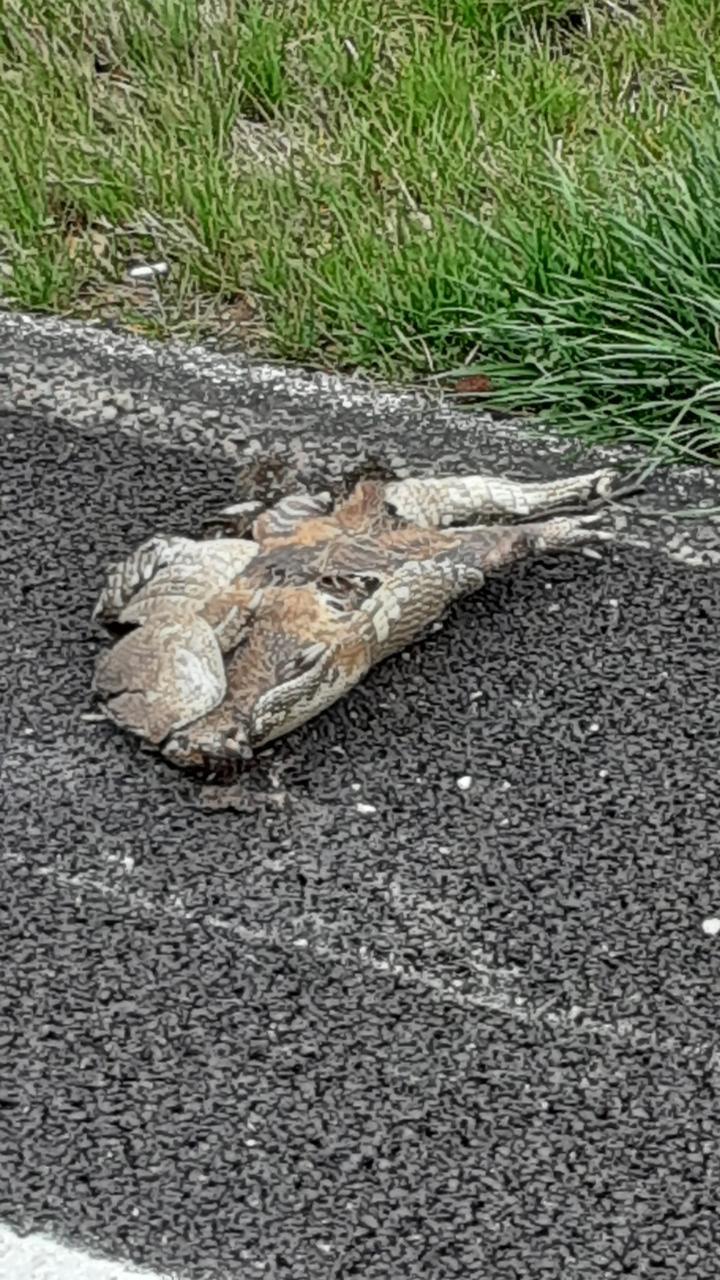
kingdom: Animalia
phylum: Chordata
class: Mammalia
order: Cingulata
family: Dasypodidae
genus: Dasypus
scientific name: Dasypus novemcinctus
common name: Nine-banded armadillo
